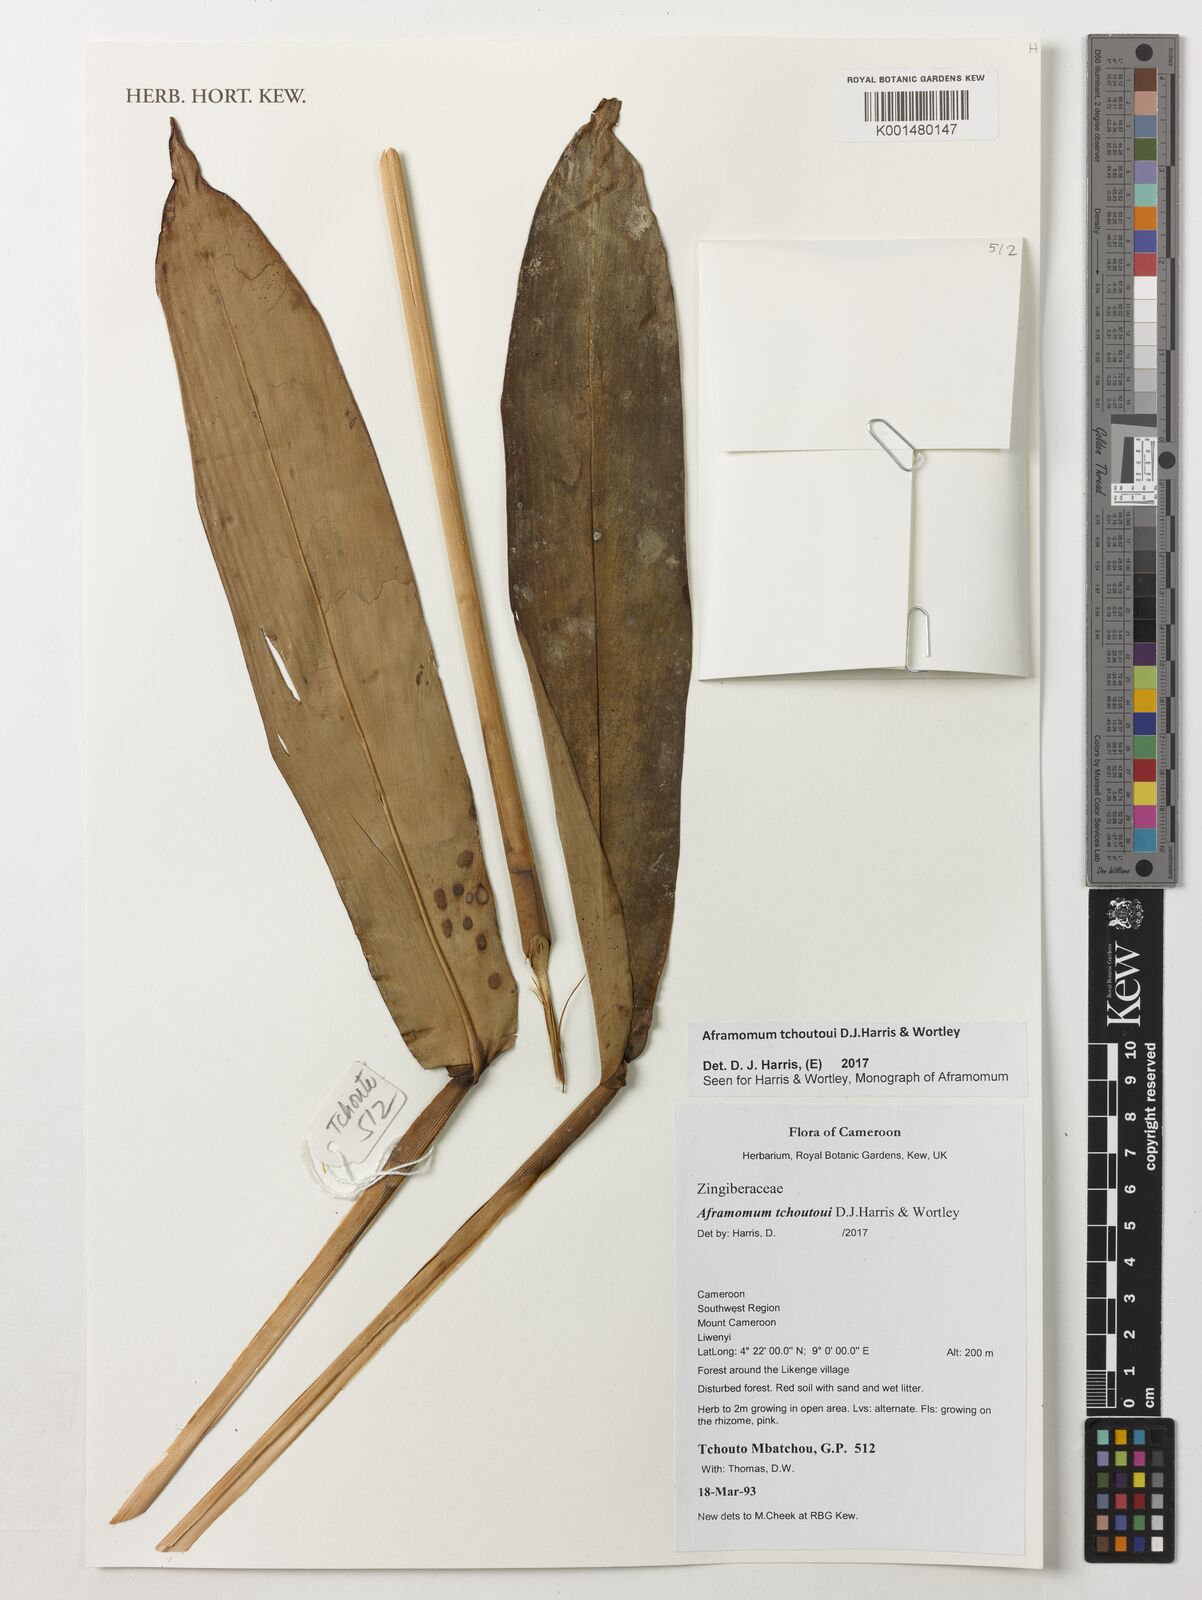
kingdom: Plantae
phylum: Tracheophyta
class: Liliopsida
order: Zingiberales
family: Zingiberaceae
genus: Aframomum
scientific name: Aframomum tchoutoui
